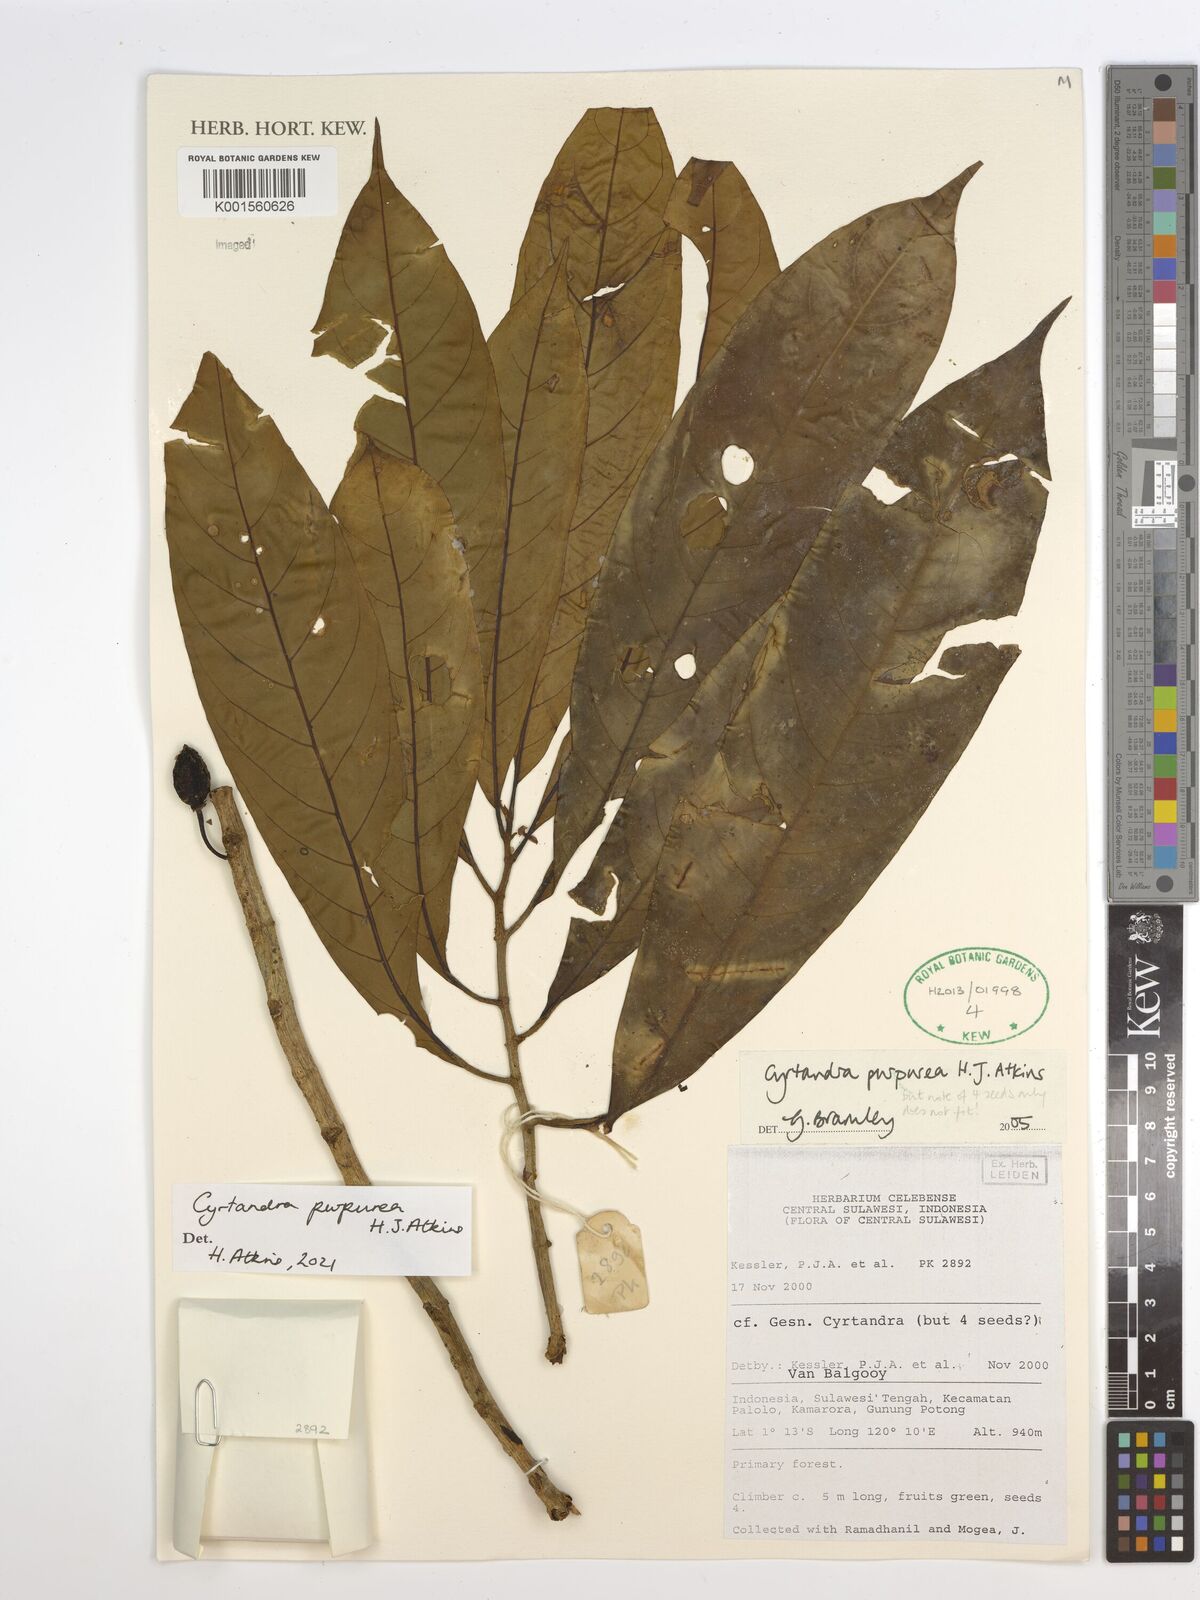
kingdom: Plantae
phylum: Tracheophyta
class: Magnoliopsida
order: Lamiales
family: Gesneriaceae
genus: Cyrtandra
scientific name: Cyrtandra purpurea
